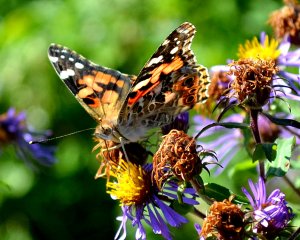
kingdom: Animalia
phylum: Arthropoda
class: Insecta
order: Lepidoptera
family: Nymphalidae
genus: Vanessa
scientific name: Vanessa cardui
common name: Painted Lady
